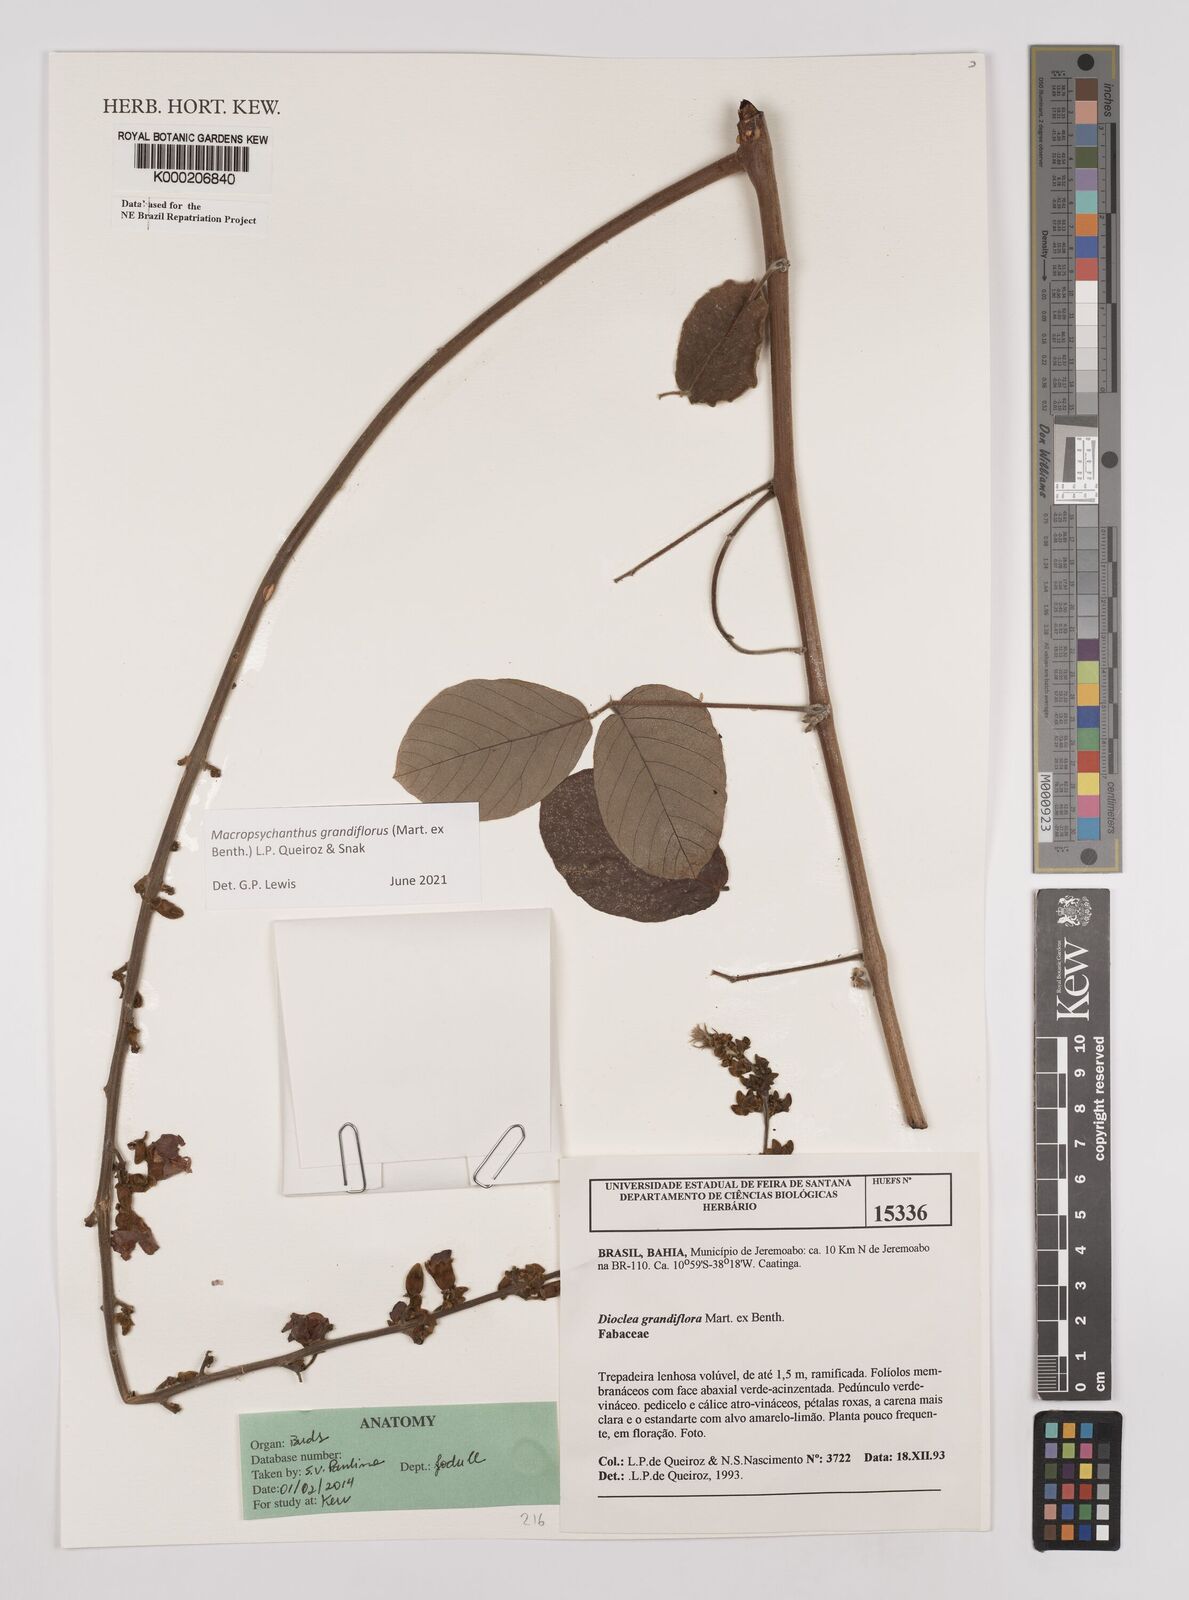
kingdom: Plantae
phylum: Tracheophyta
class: Magnoliopsida
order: Fabales
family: Fabaceae
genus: Macropsychanthus
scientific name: Macropsychanthus grandiflorus
